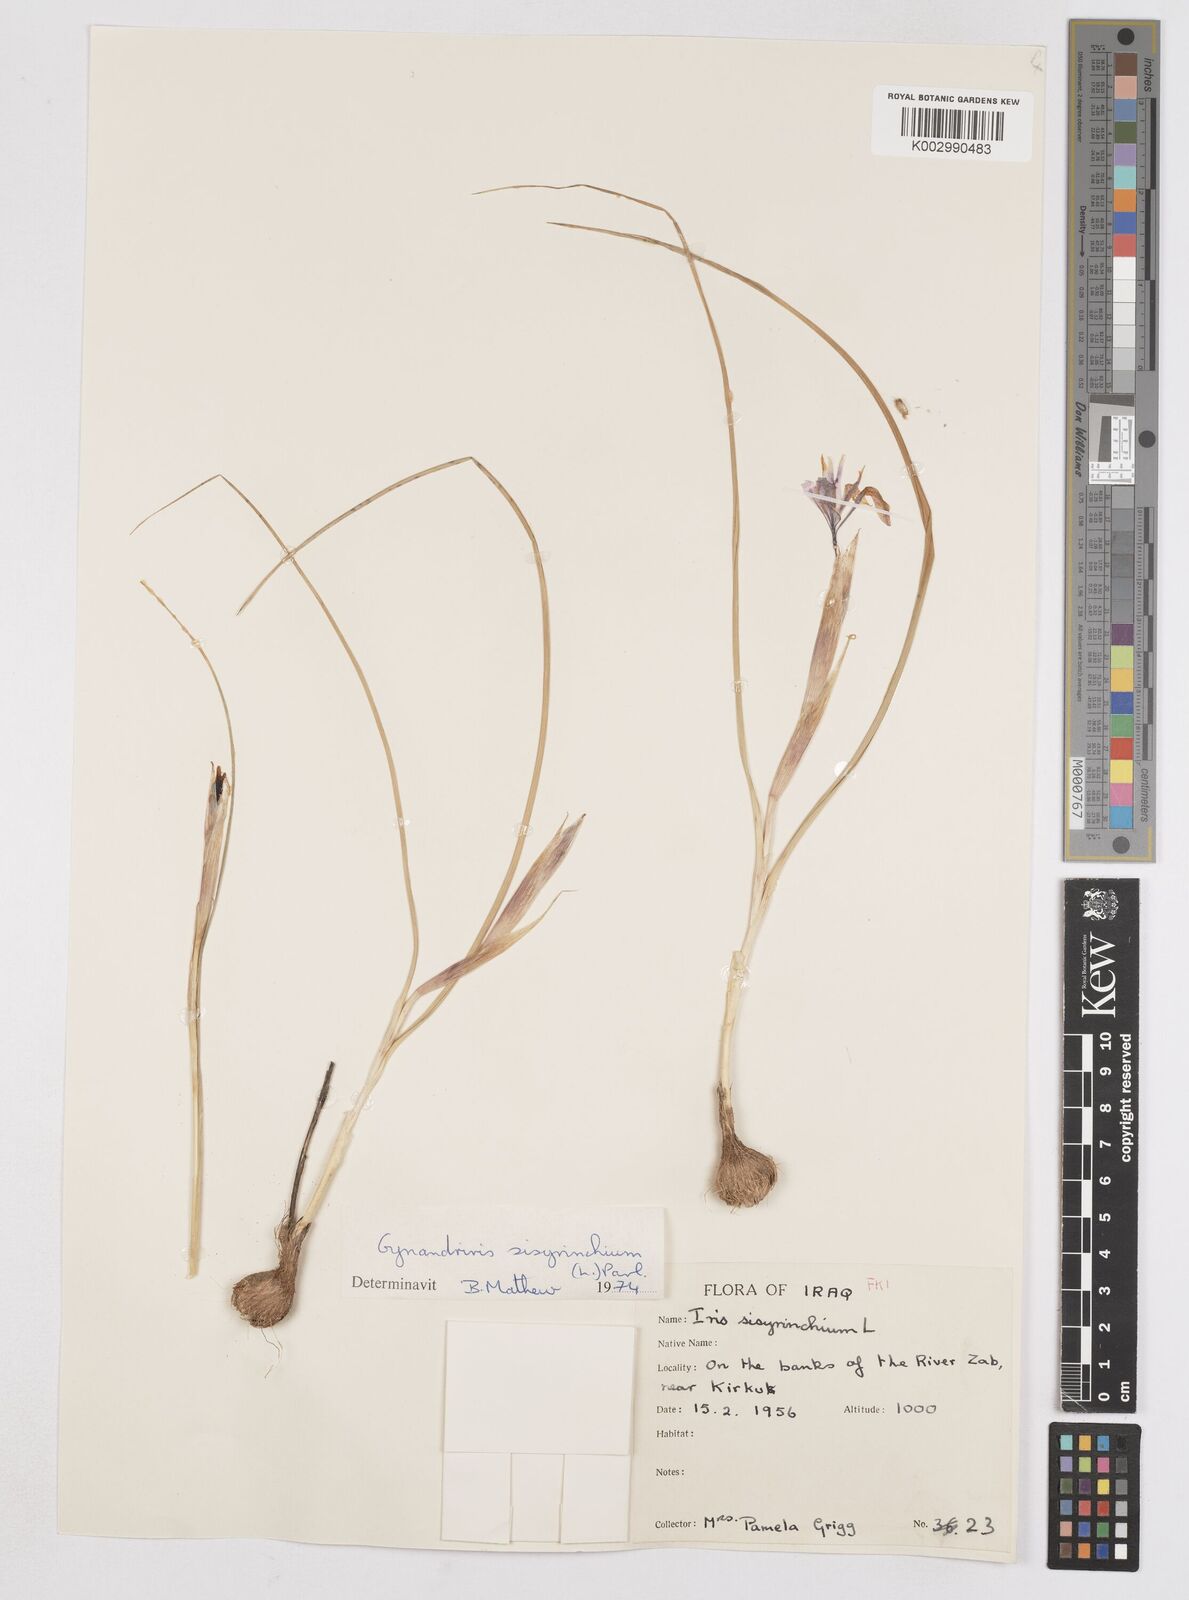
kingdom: Plantae
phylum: Tracheophyta
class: Liliopsida
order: Asparagales
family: Iridaceae
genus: Moraea
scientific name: Moraea sisyrinchium
